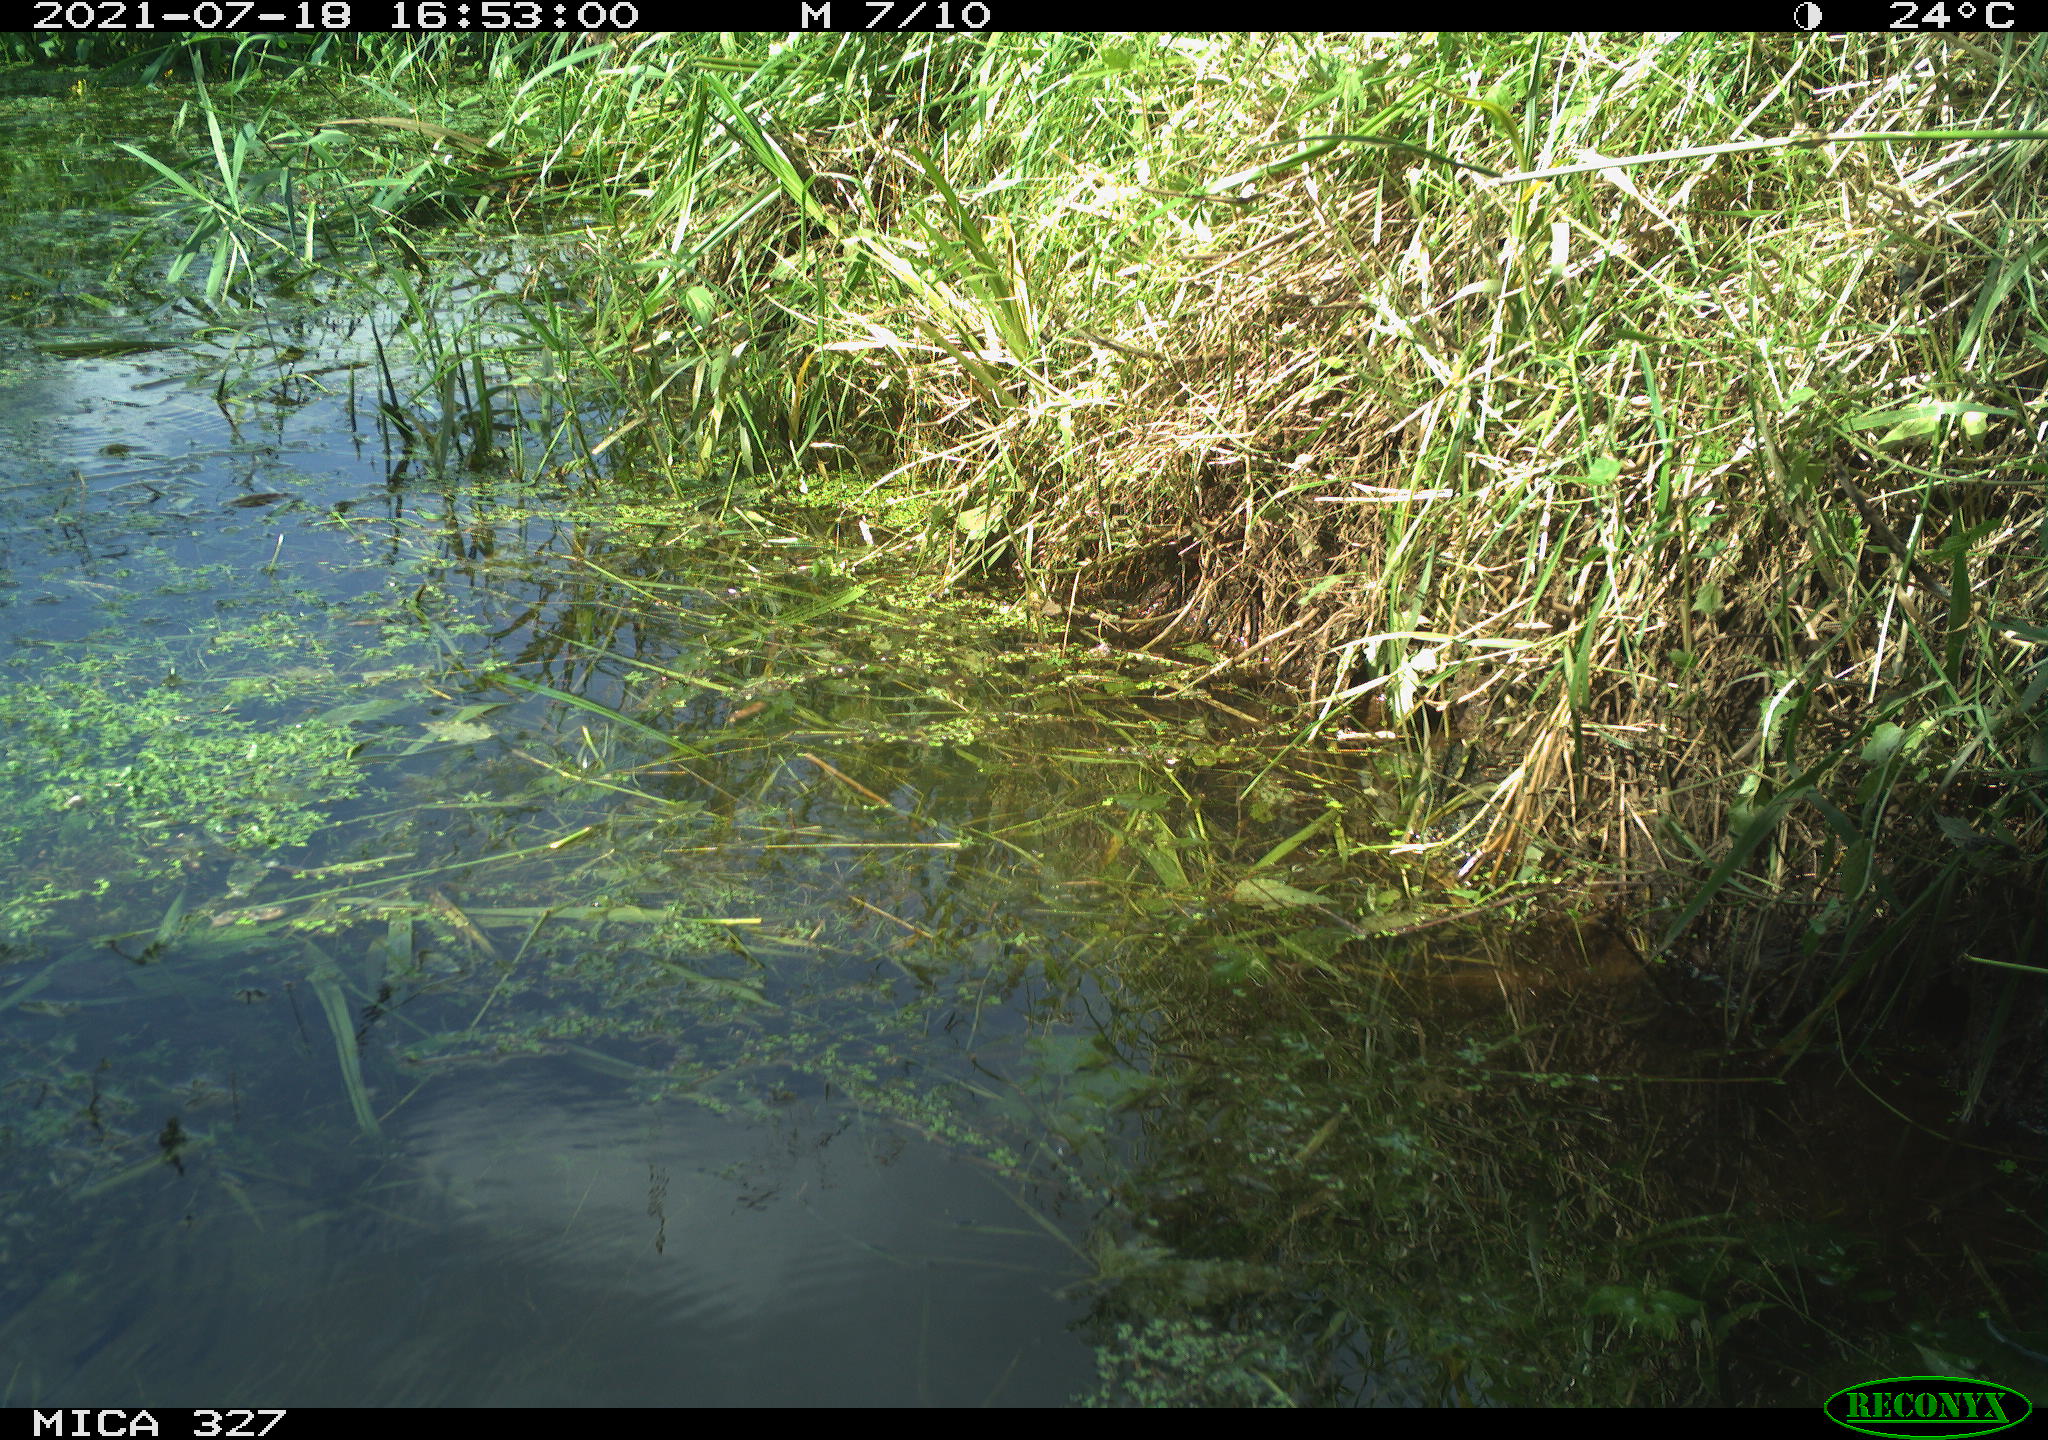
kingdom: Animalia
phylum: Chordata
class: Aves
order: Gruiformes
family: Rallidae
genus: Gallinula
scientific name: Gallinula chloropus
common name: Common moorhen
